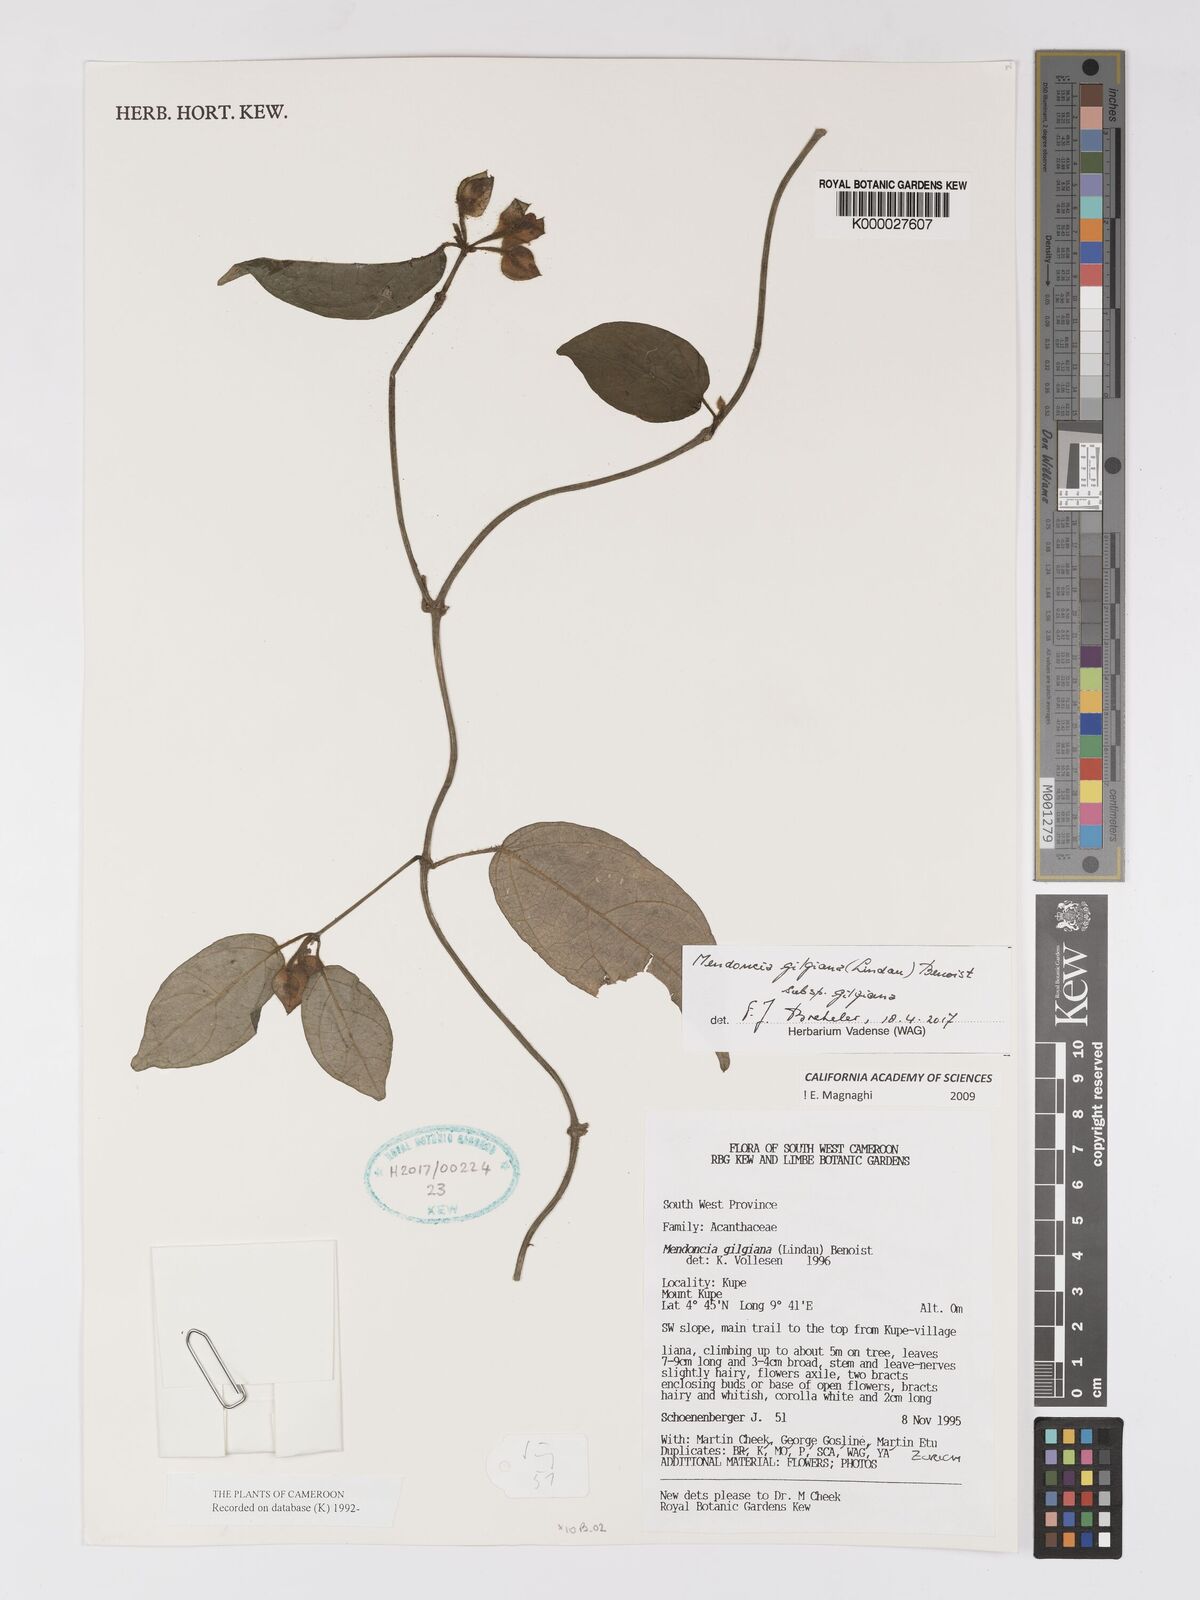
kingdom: Plantae
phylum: Tracheophyta
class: Magnoliopsida
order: Lamiales
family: Acanthaceae
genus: Mendoncia
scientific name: Mendoncia gilgiana
